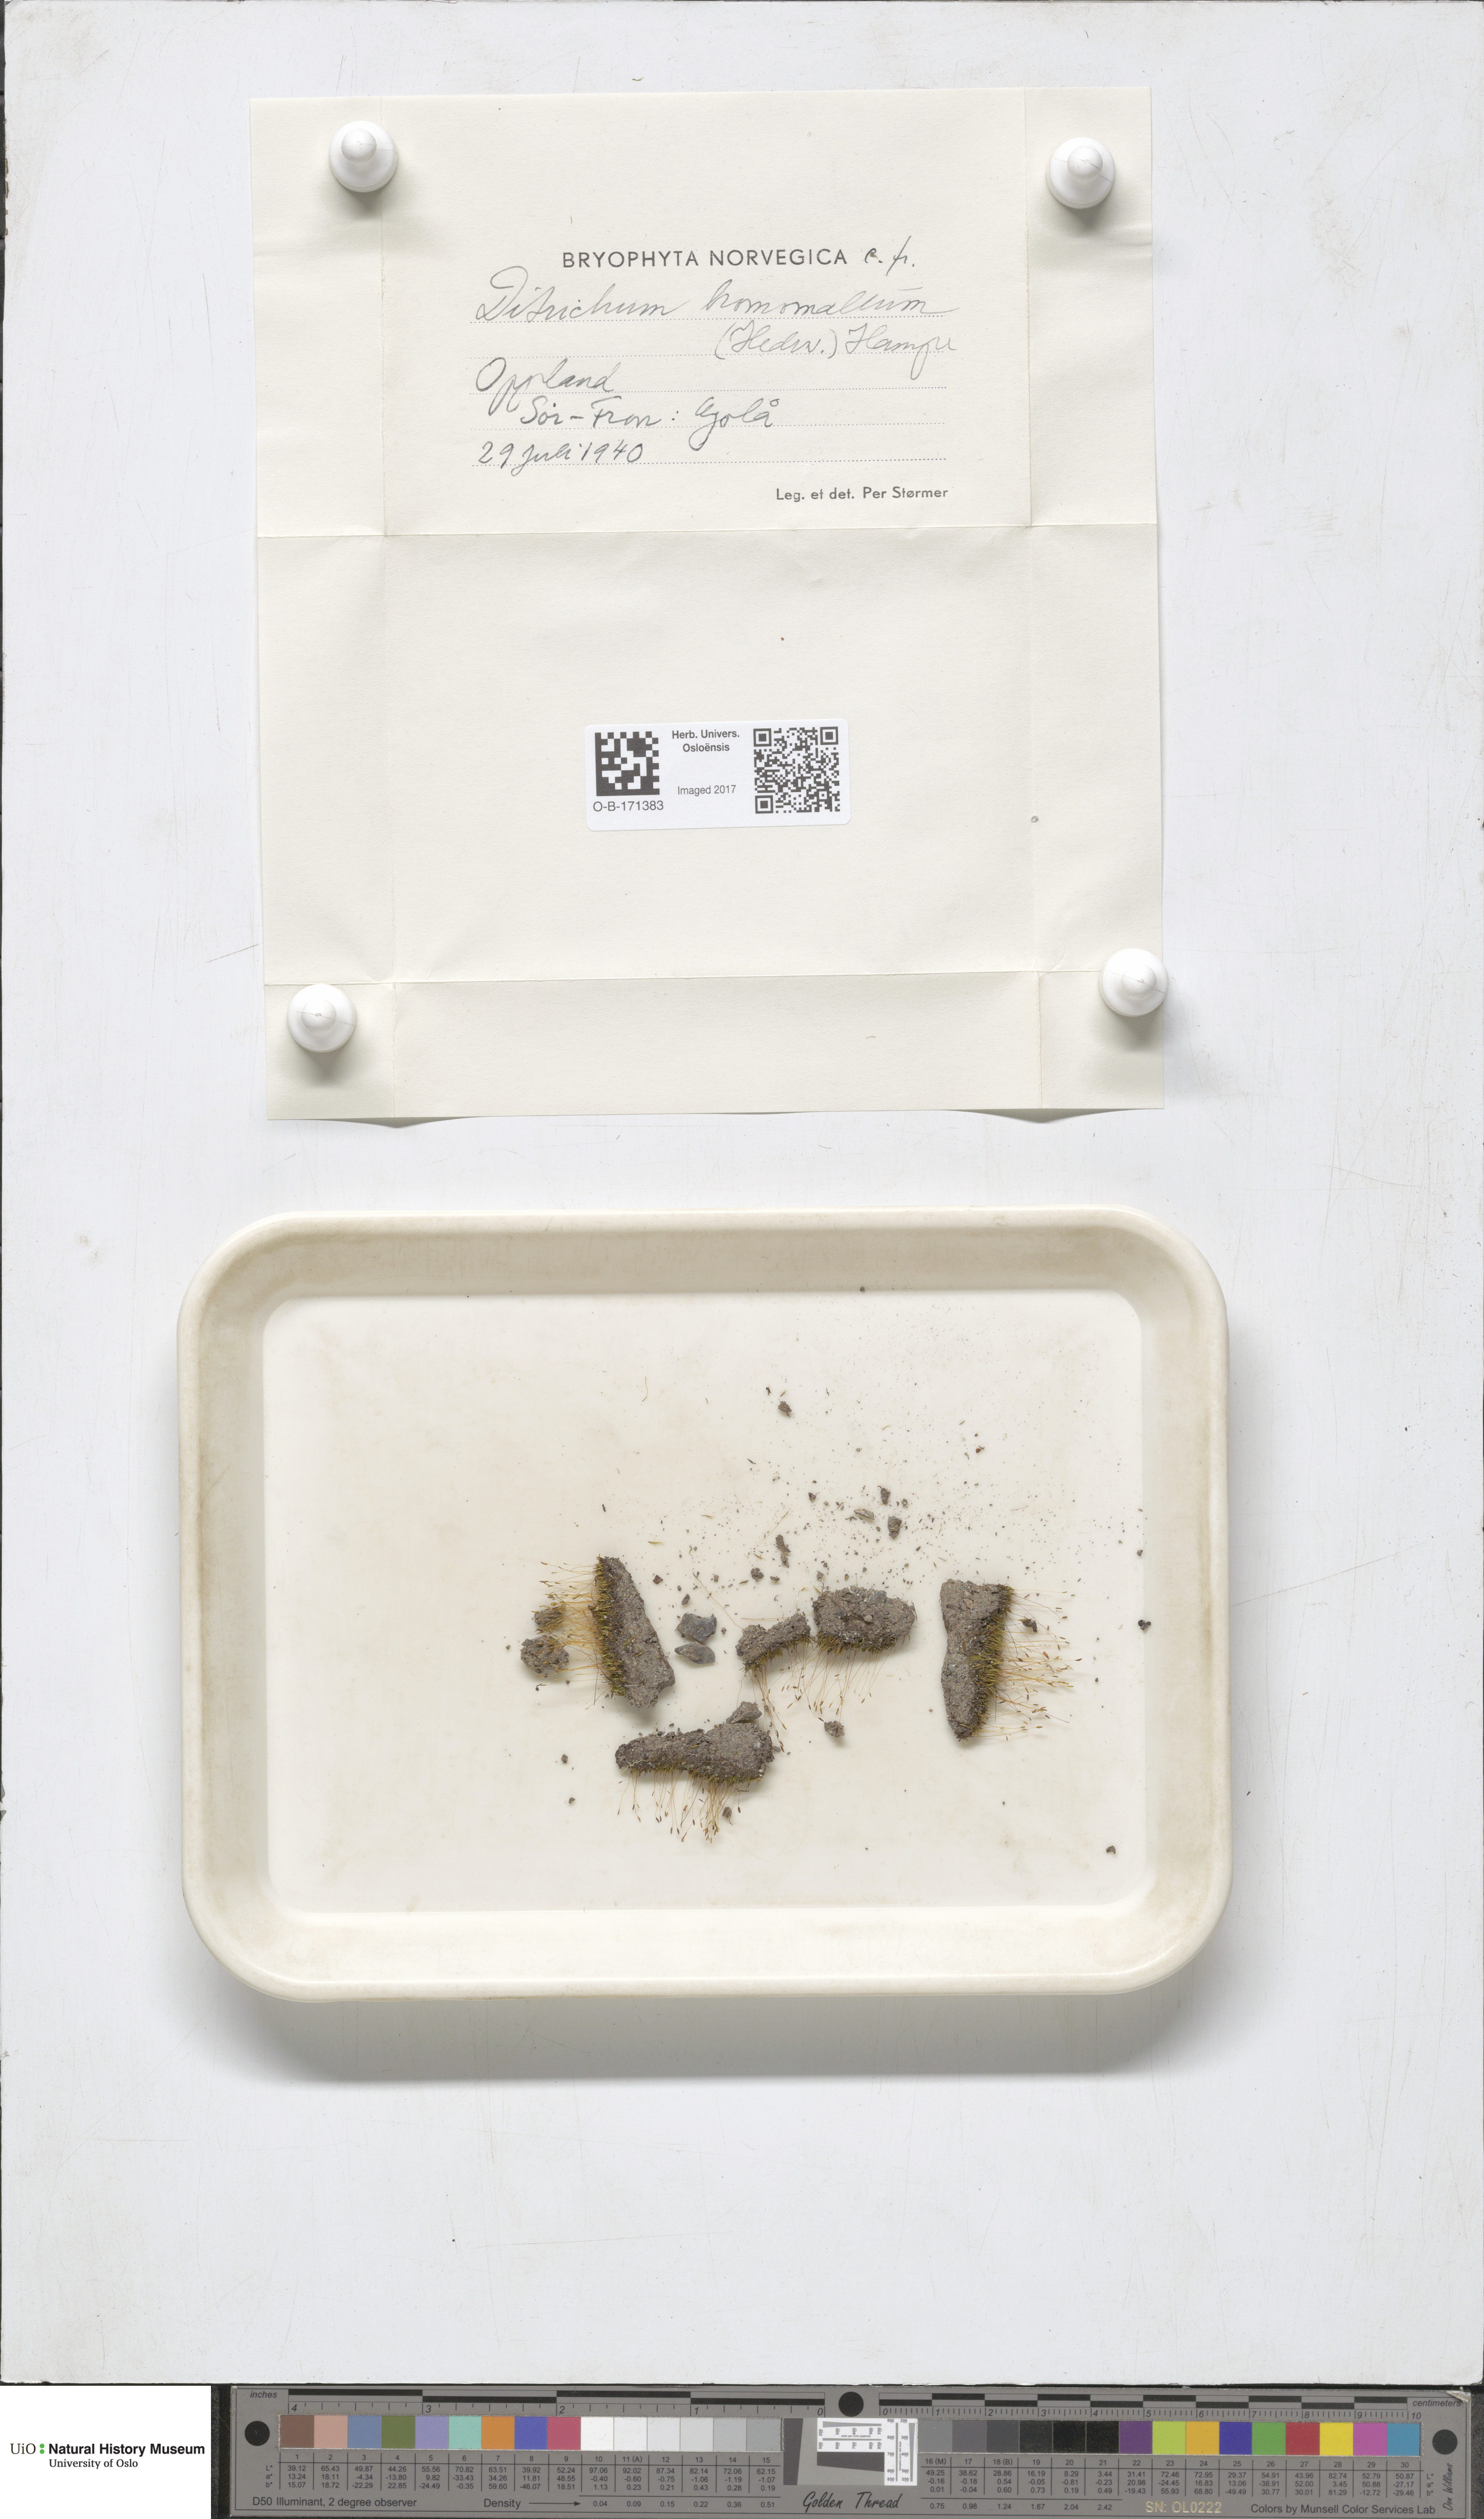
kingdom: Plantae
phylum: Bryophyta
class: Bryopsida
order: Dicranales
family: Ditrichaceae
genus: Ditrichum
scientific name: Ditrichum heteromallum
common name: Curve-leaved ditrichum
